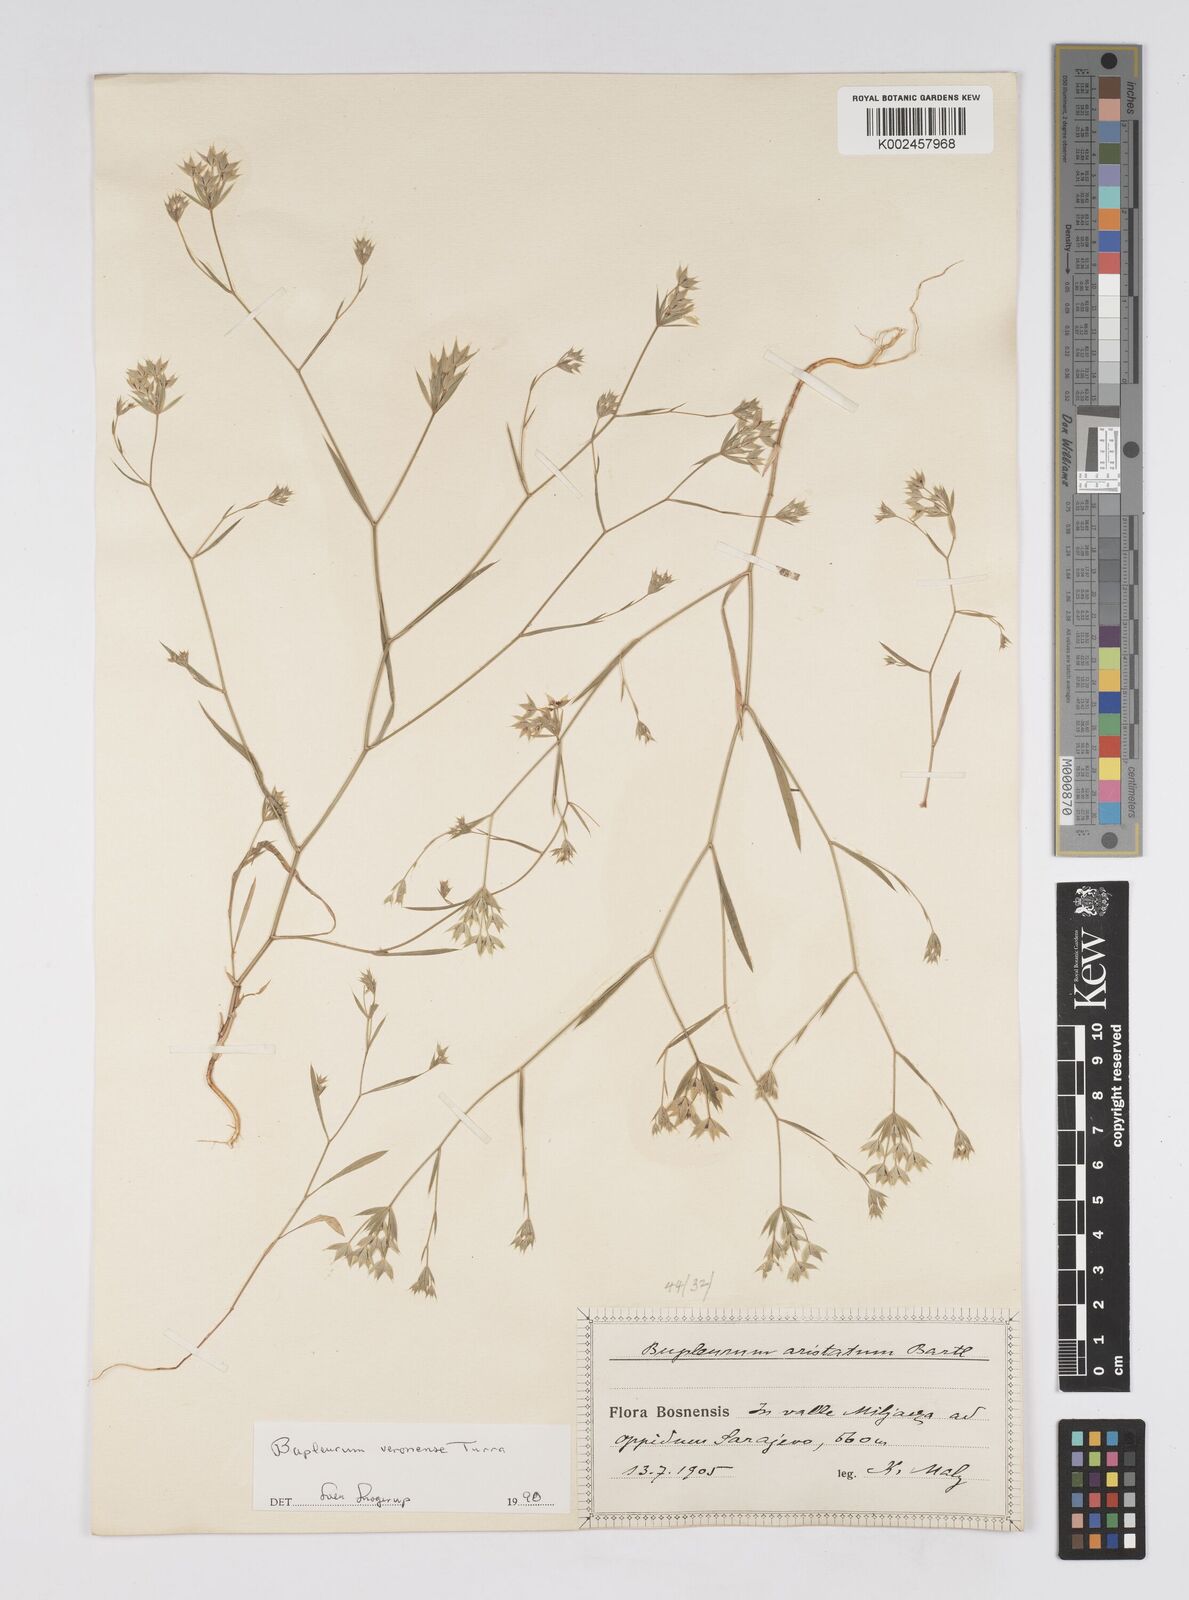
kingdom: Plantae
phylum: Tracheophyta
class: Magnoliopsida
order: Apiales
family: Apiaceae
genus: Bupleurum
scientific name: Bupleurum glumaceum
